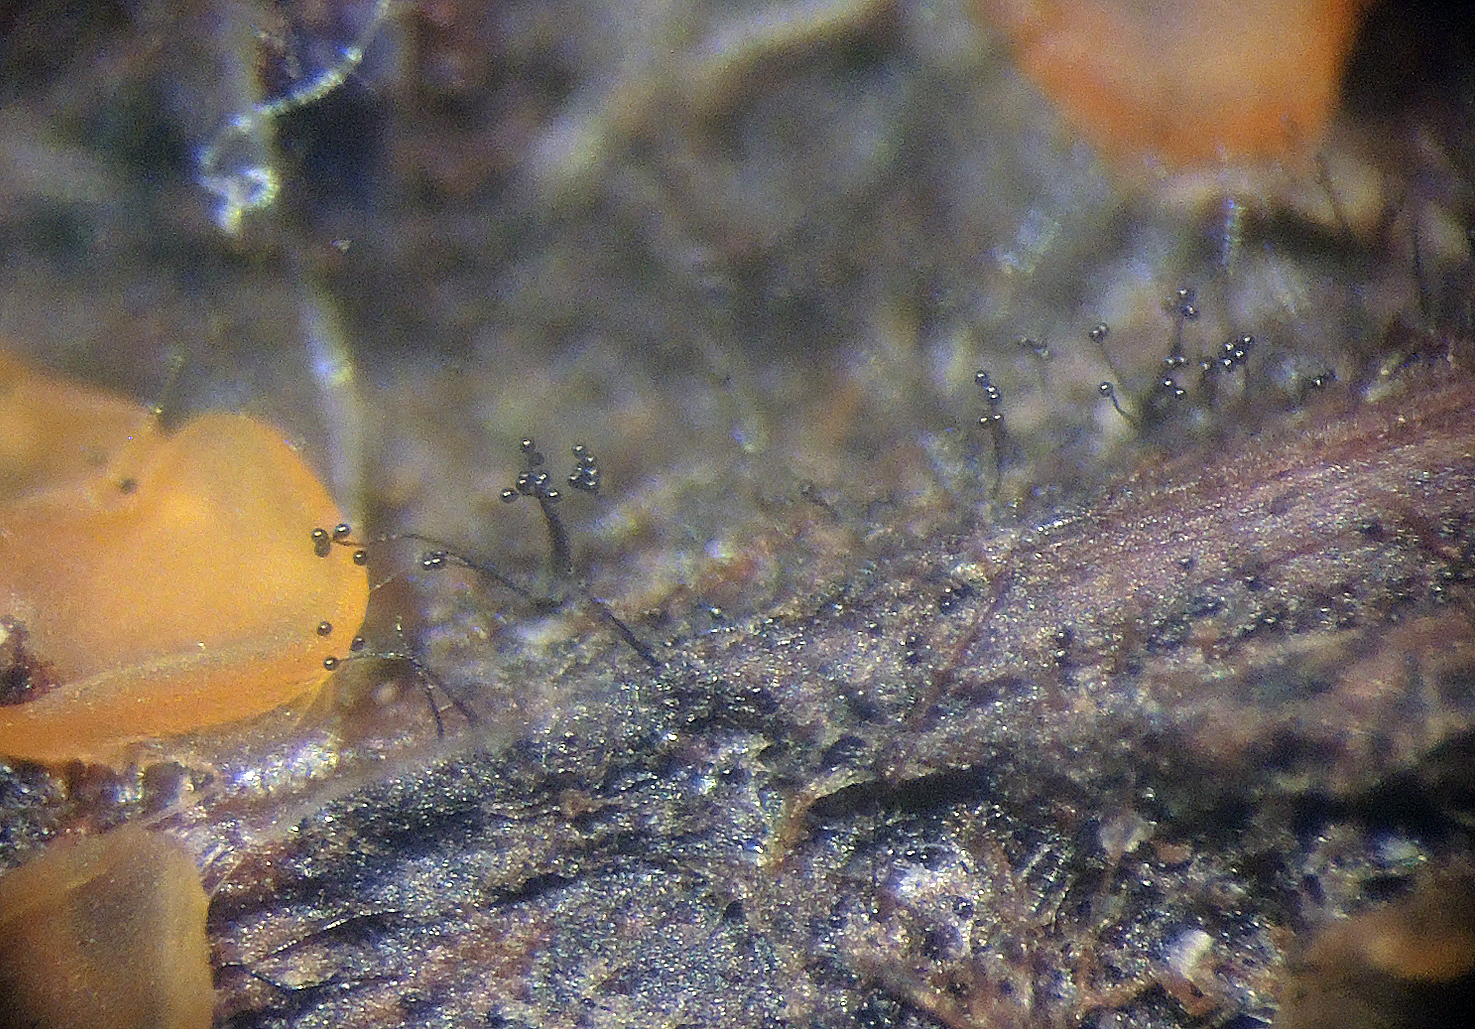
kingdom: Fungi
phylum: Ascomycota
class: Dothideomycetes
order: Minutisphaerales
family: Acrogenosporaceae
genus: Acrogenospora
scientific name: Acrogenospora carmichaeliana
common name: tocellet kulmund
